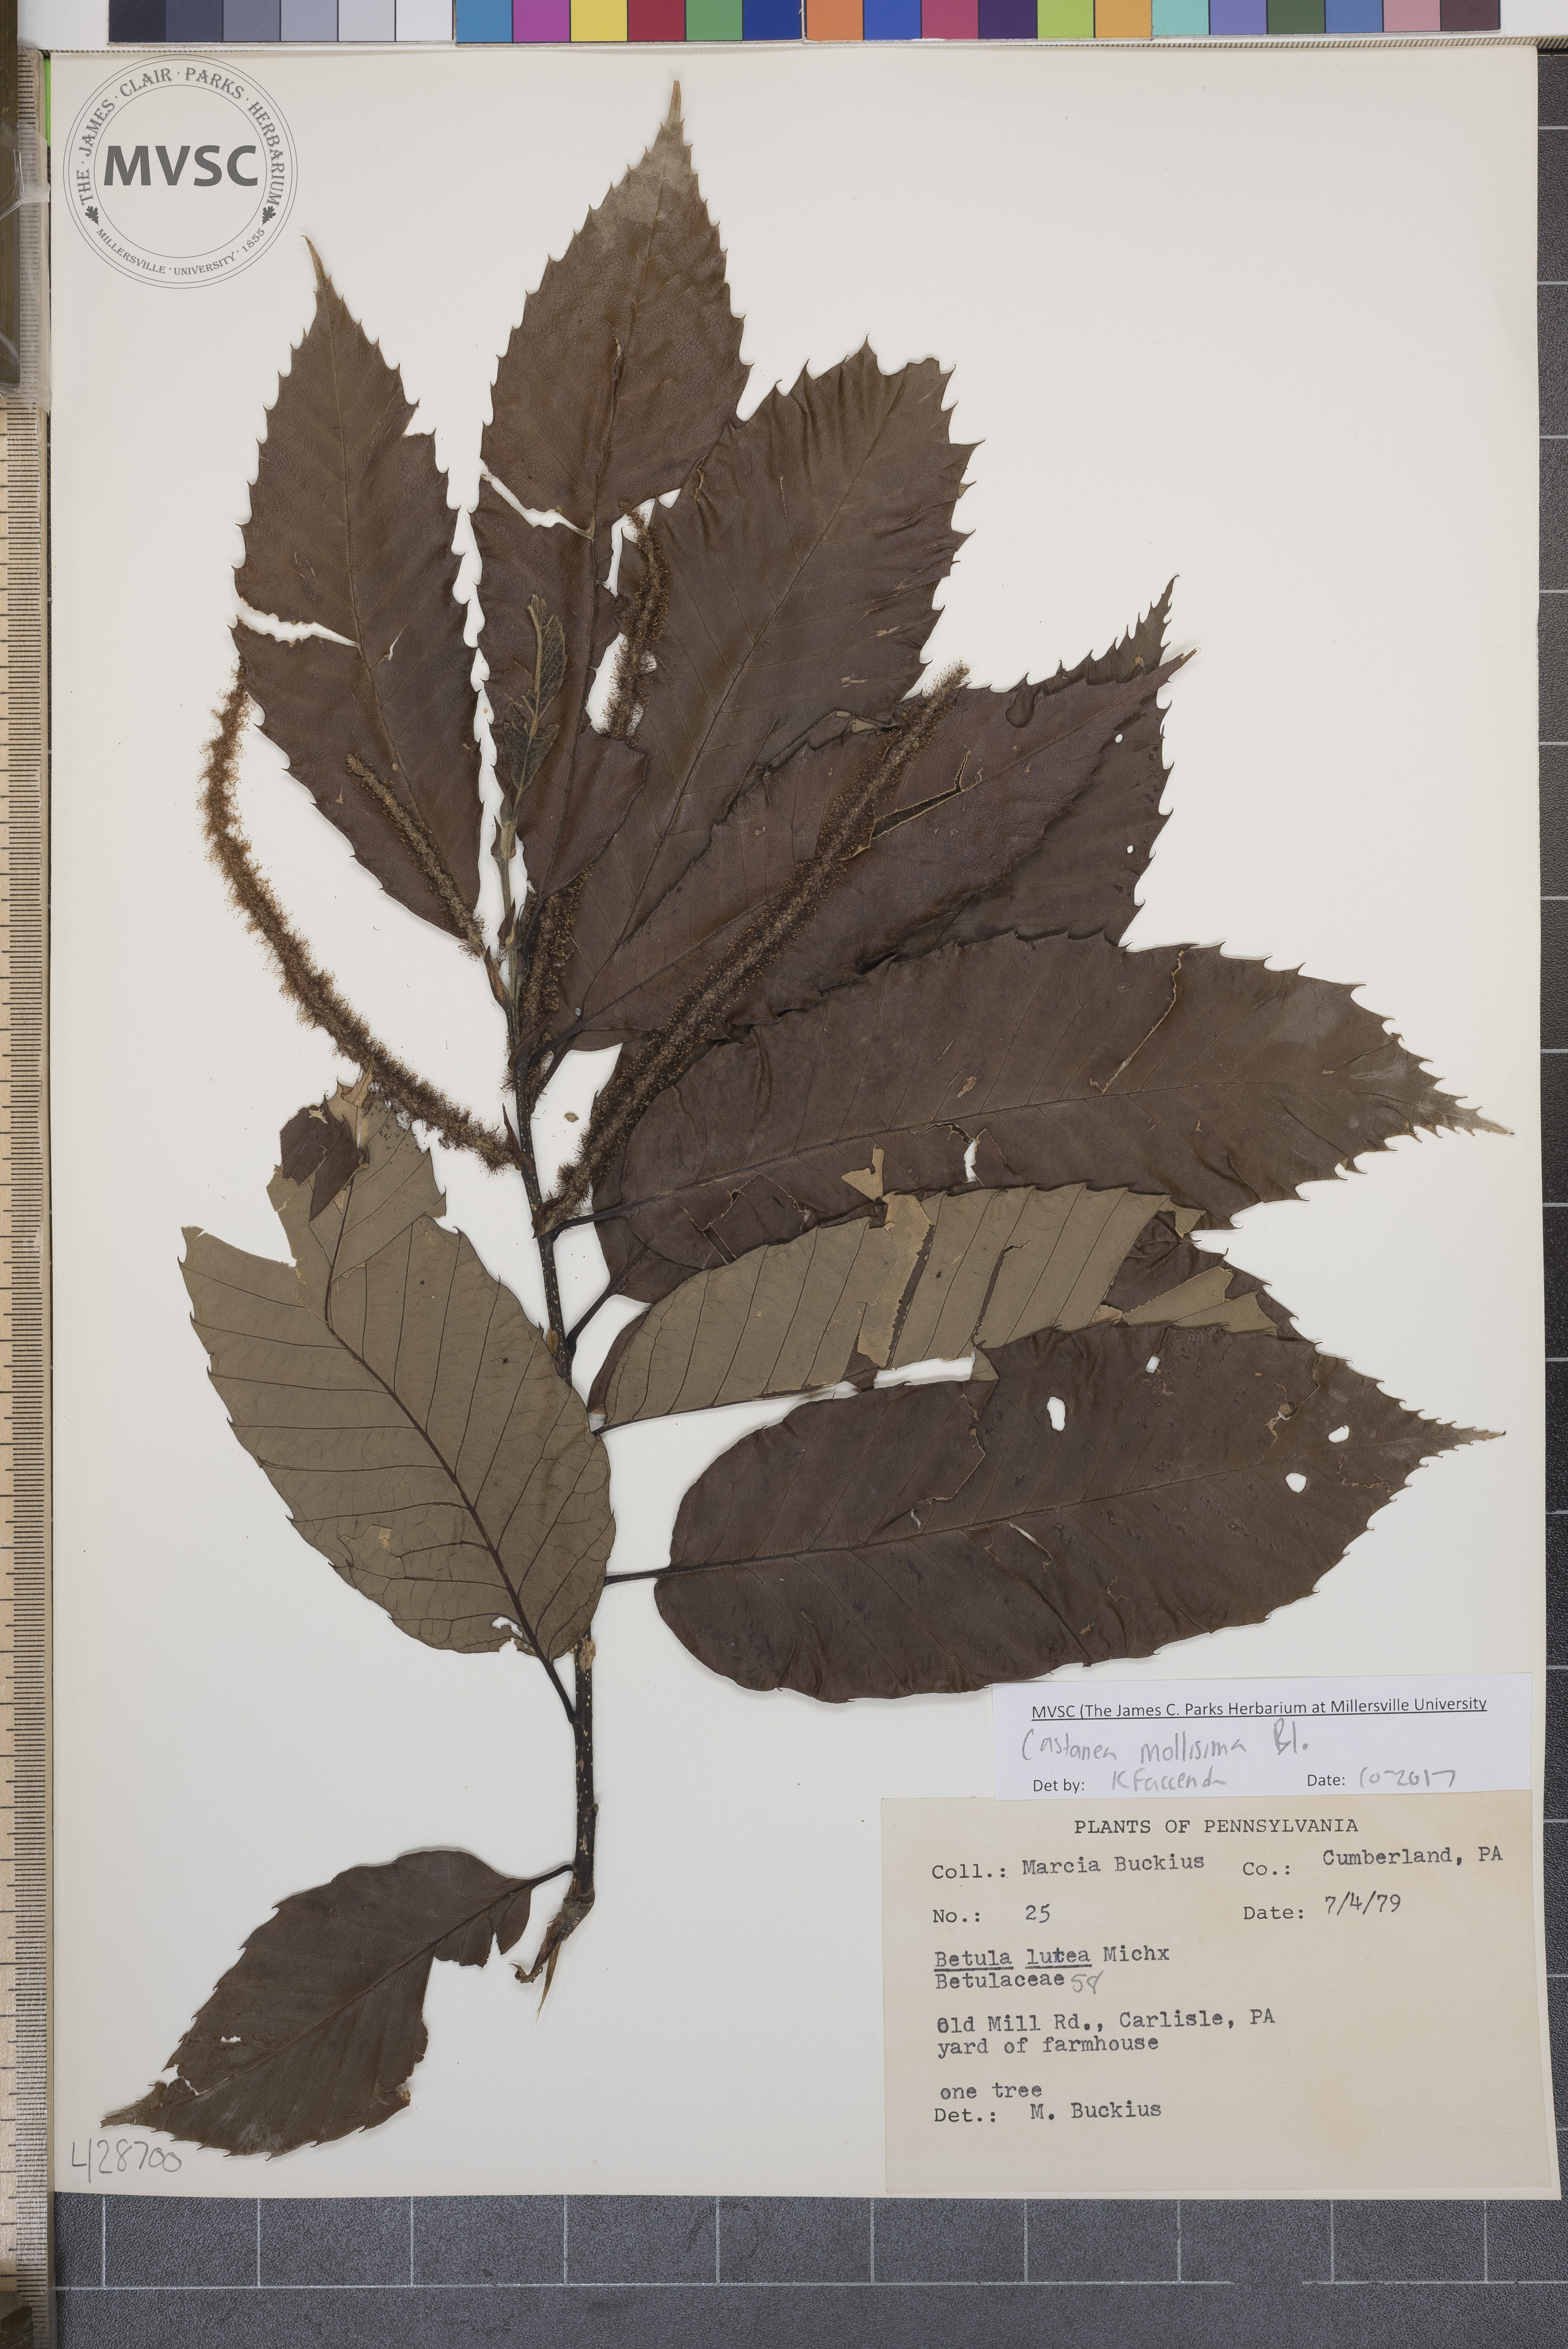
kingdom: Plantae
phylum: Tracheophyta
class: Magnoliopsida
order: Fagales
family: Fagaceae
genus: Castanea
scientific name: Castanea mollissima
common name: Chinese chestnut
